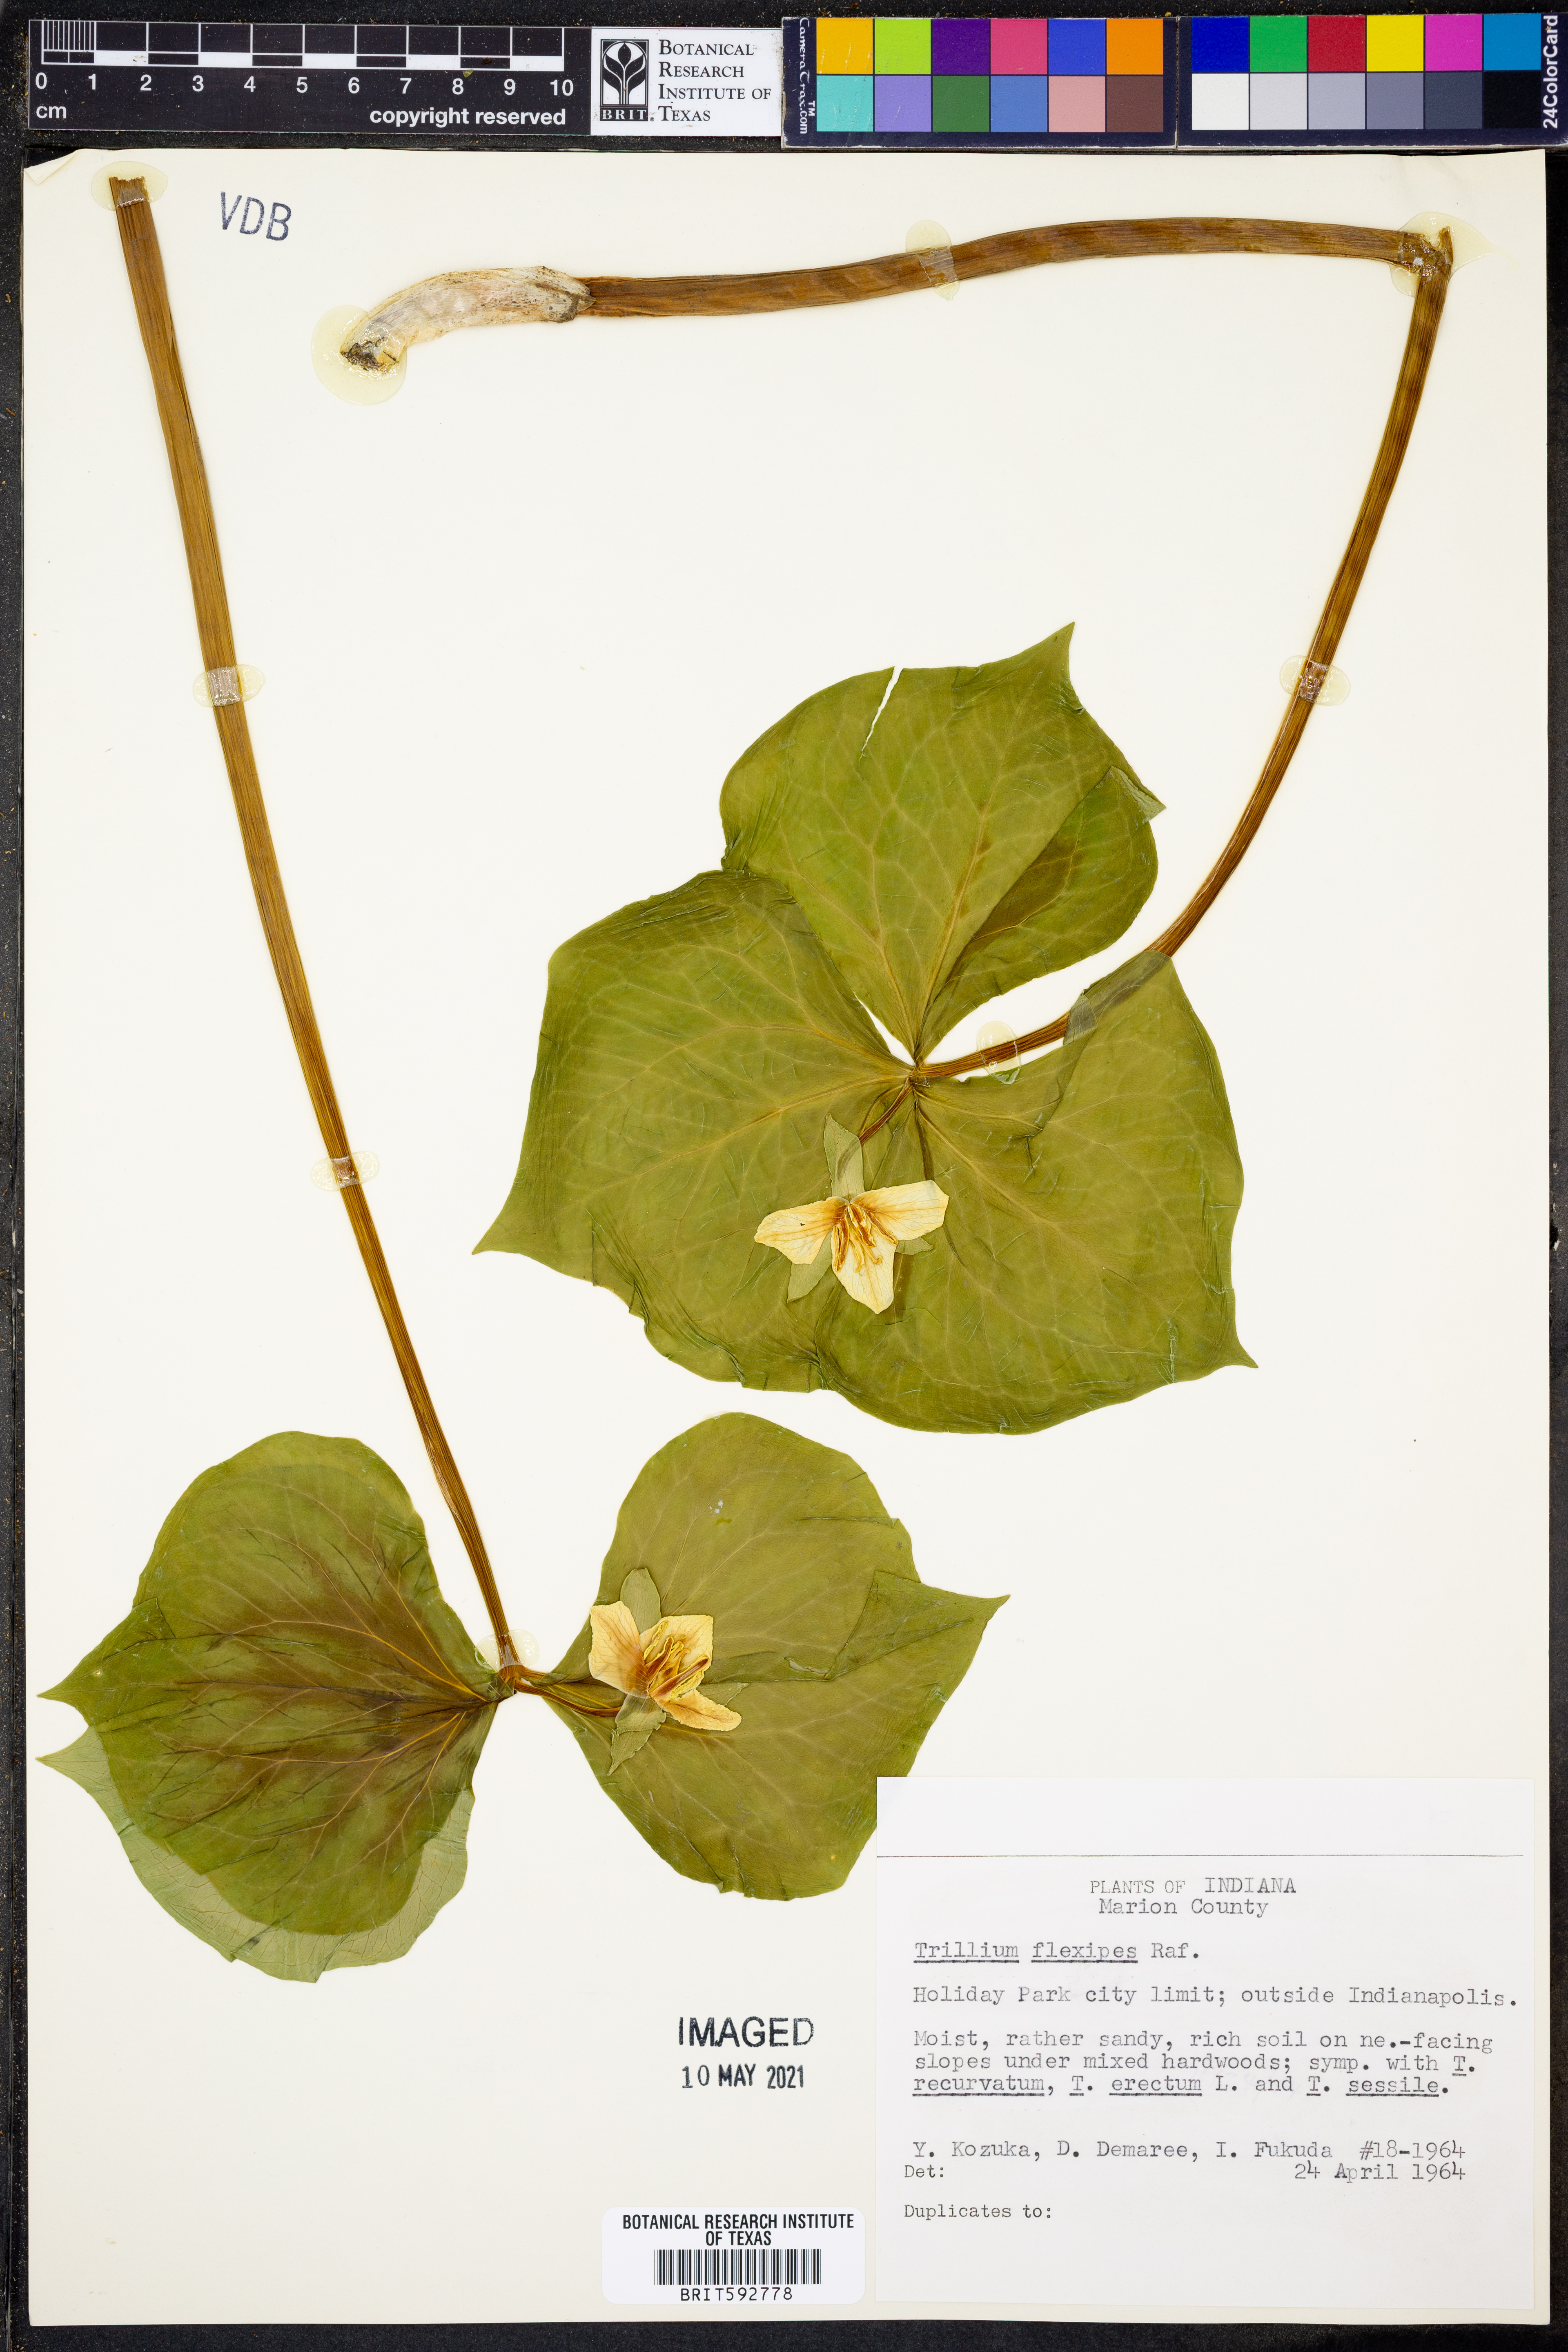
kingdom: Plantae
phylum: Tracheophyta
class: Liliopsida
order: Liliales
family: Melanthiaceae
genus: Trillium
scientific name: Trillium flexipes
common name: Drooping trillium
